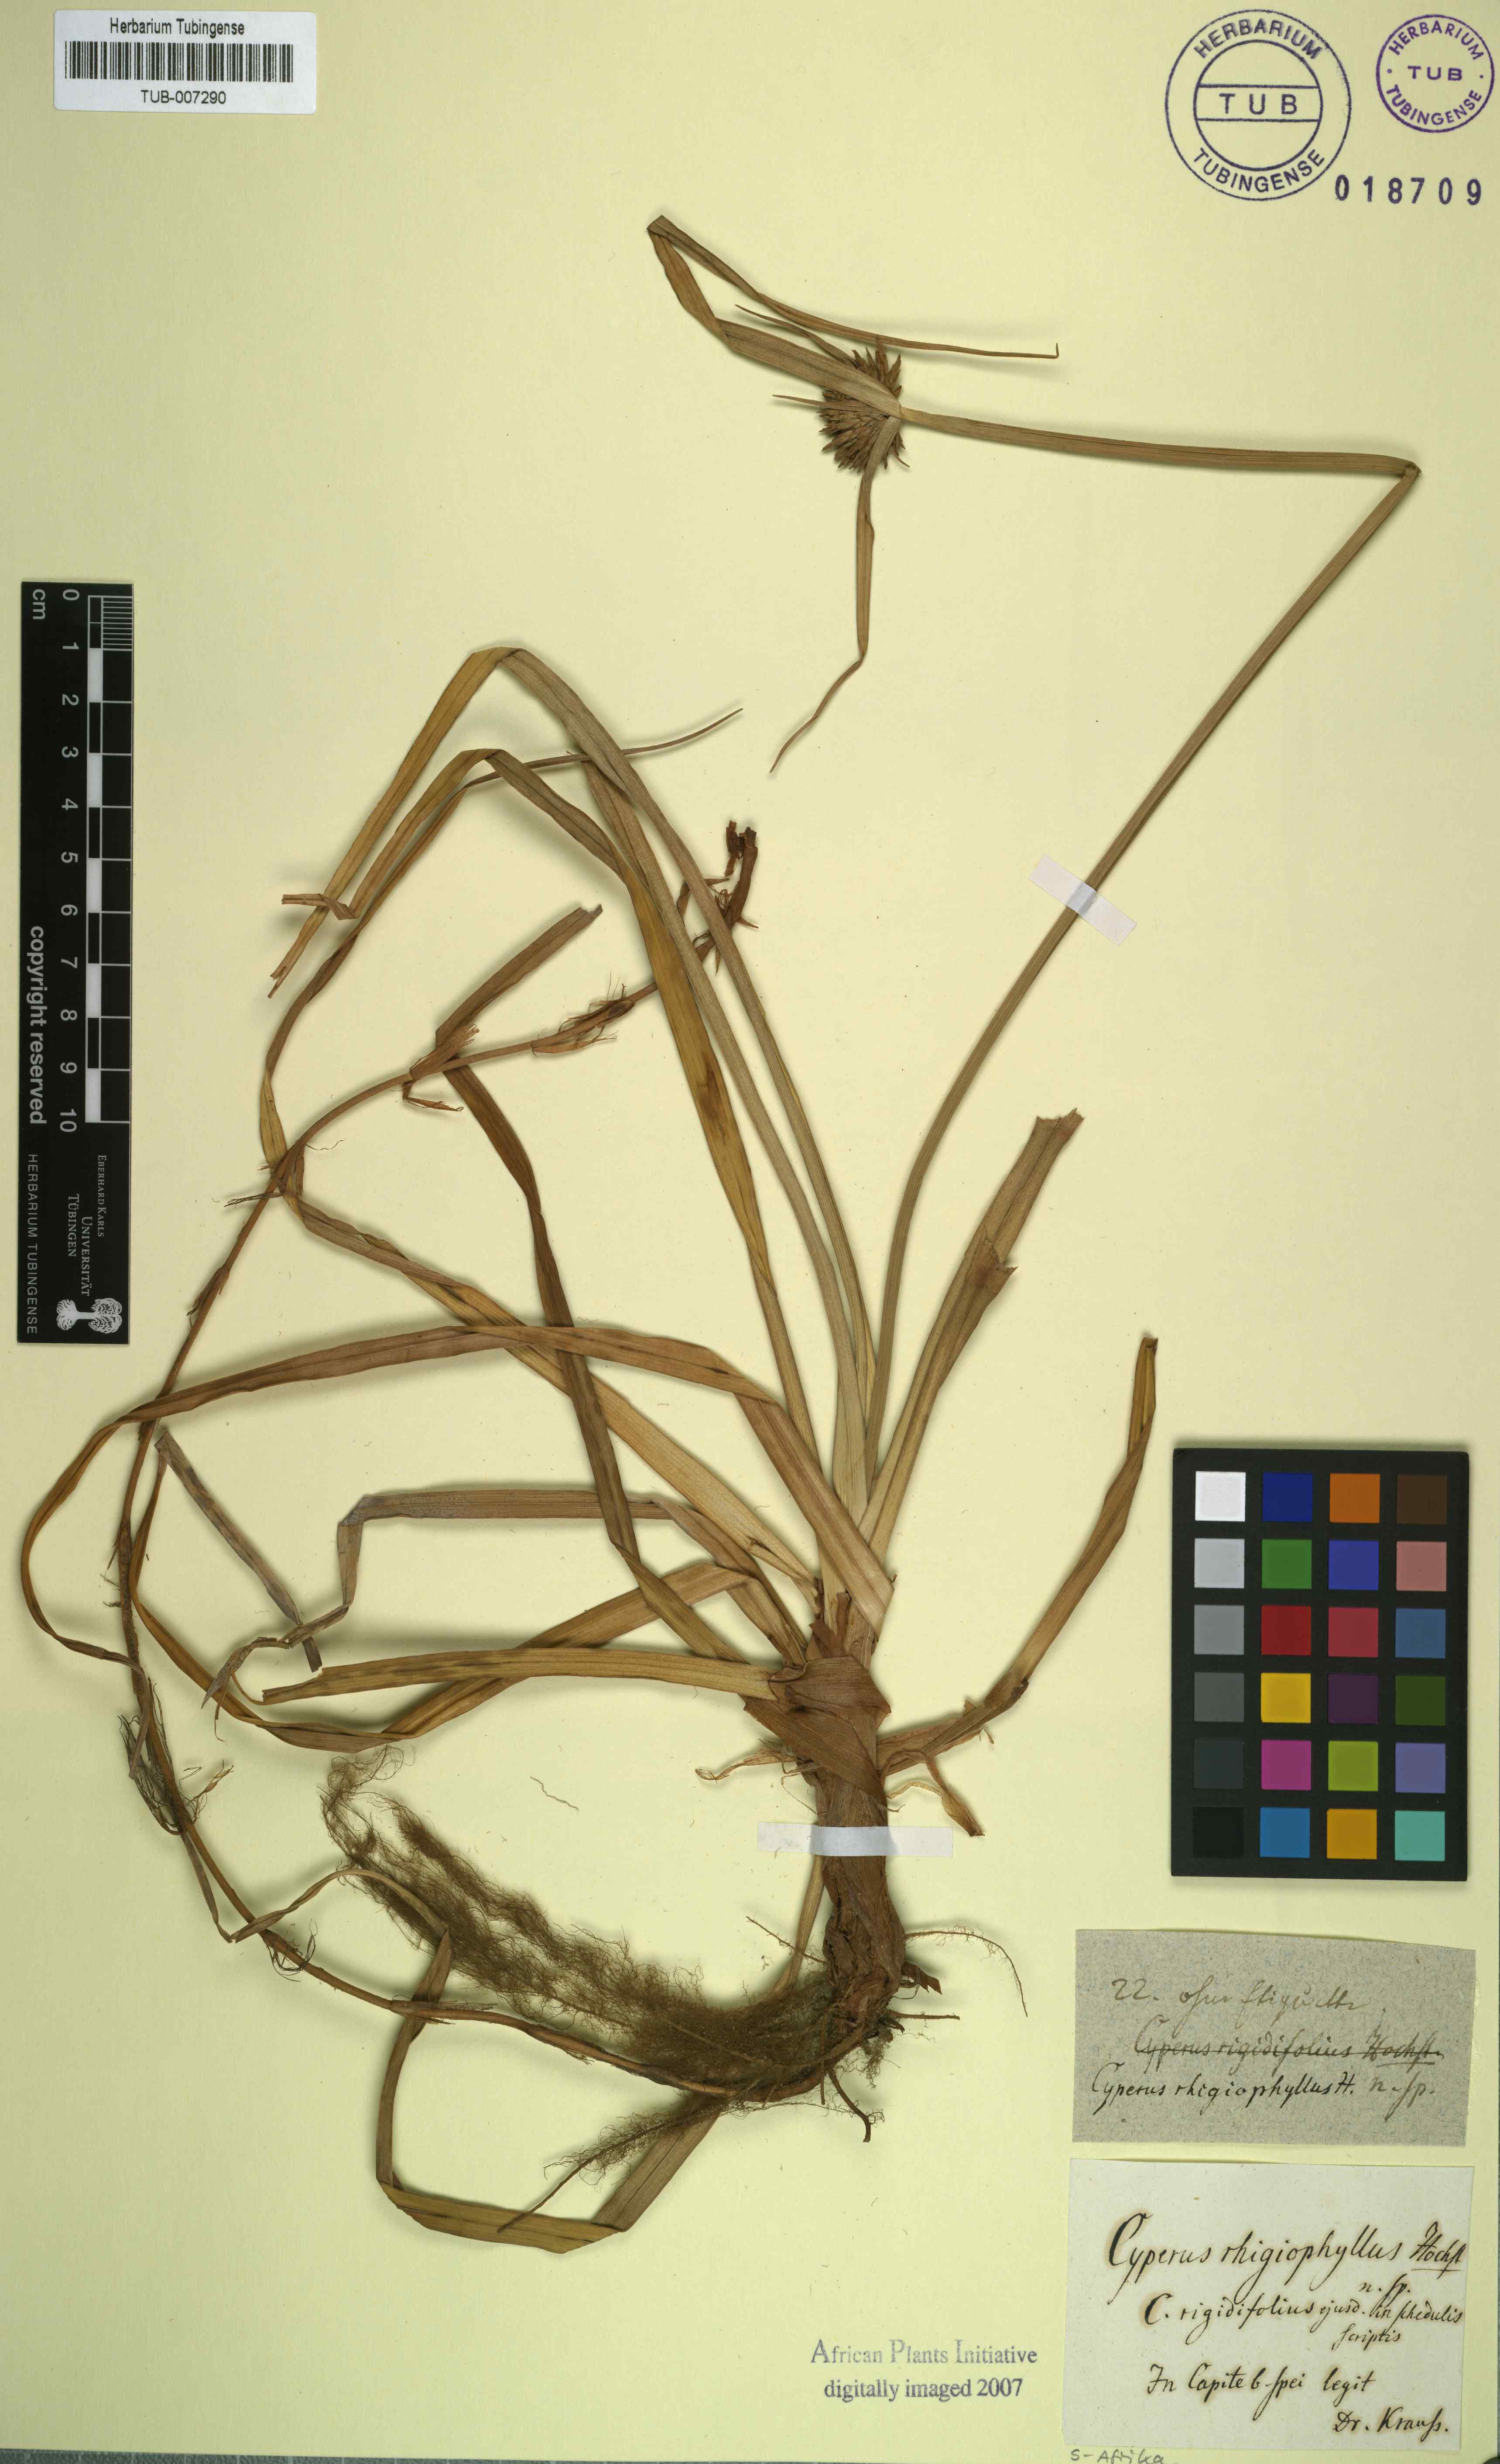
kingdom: Plantae
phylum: Tracheophyta
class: Liliopsida
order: Poales
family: Cyperaceae
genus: Cyperus
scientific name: Cyperus rhigiophyllus
